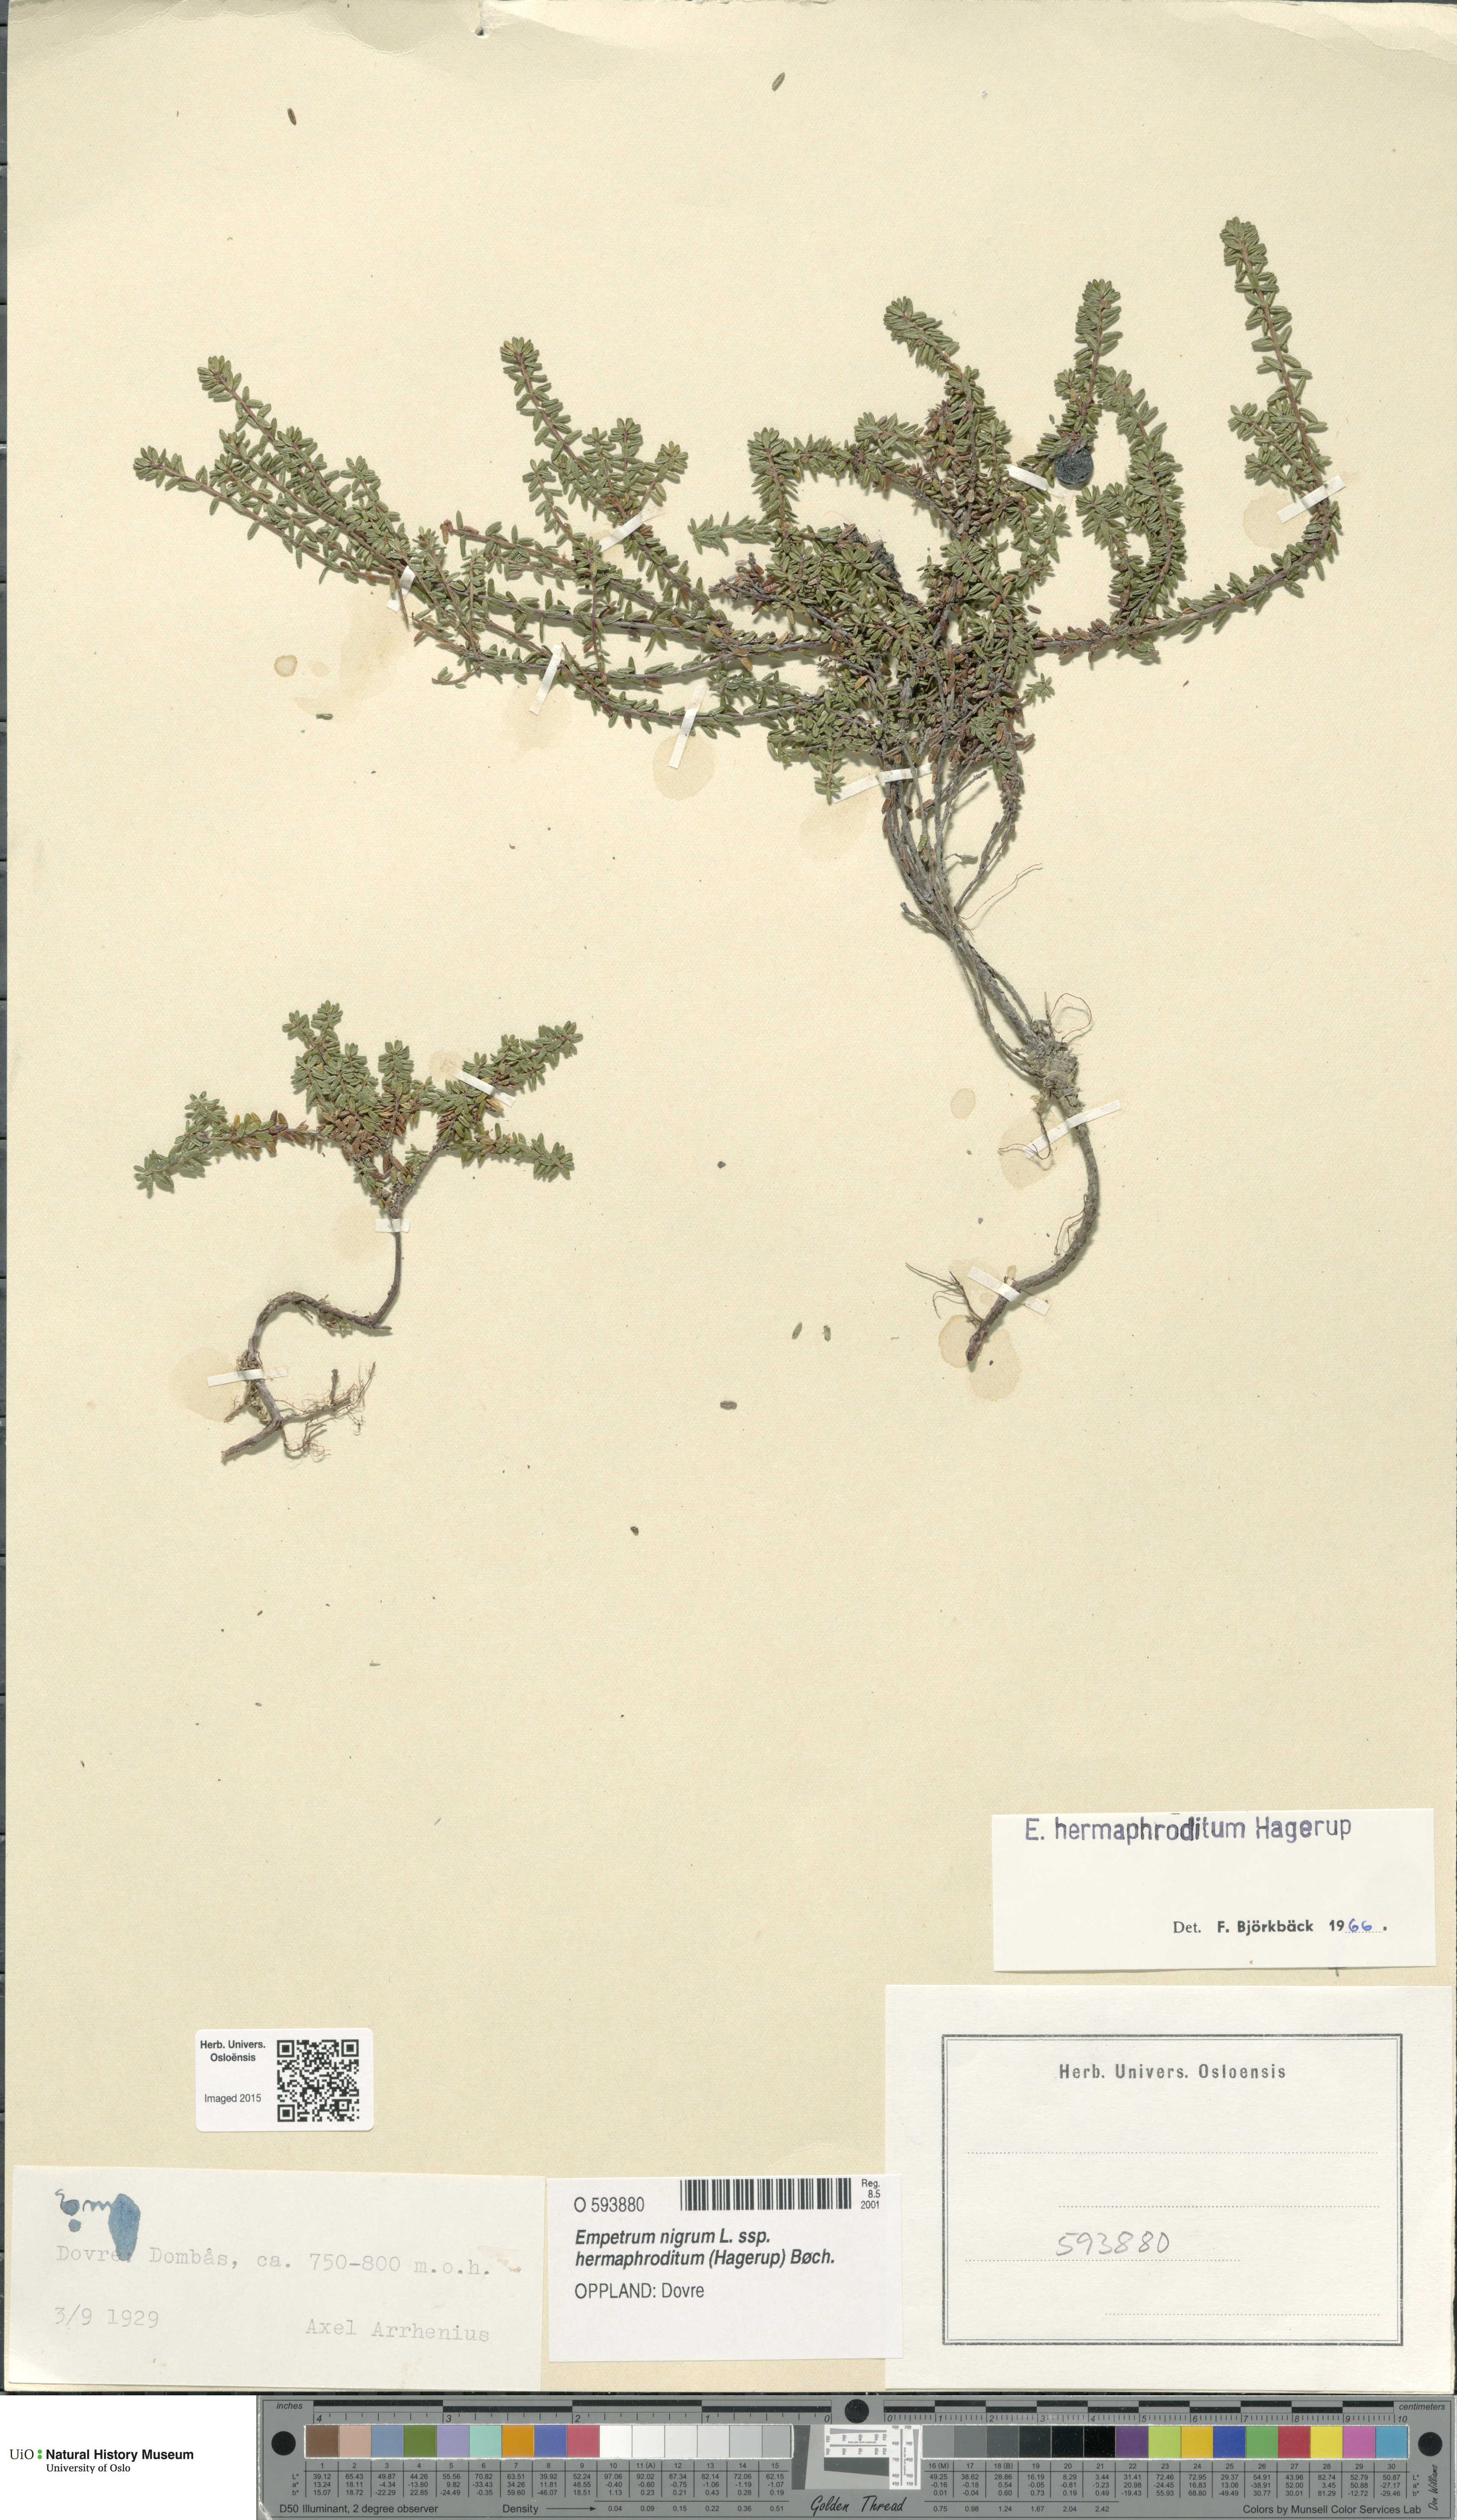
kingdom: Plantae
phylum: Tracheophyta
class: Magnoliopsida
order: Ericales
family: Ericaceae
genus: Empetrum
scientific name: Empetrum hermaphroditum
